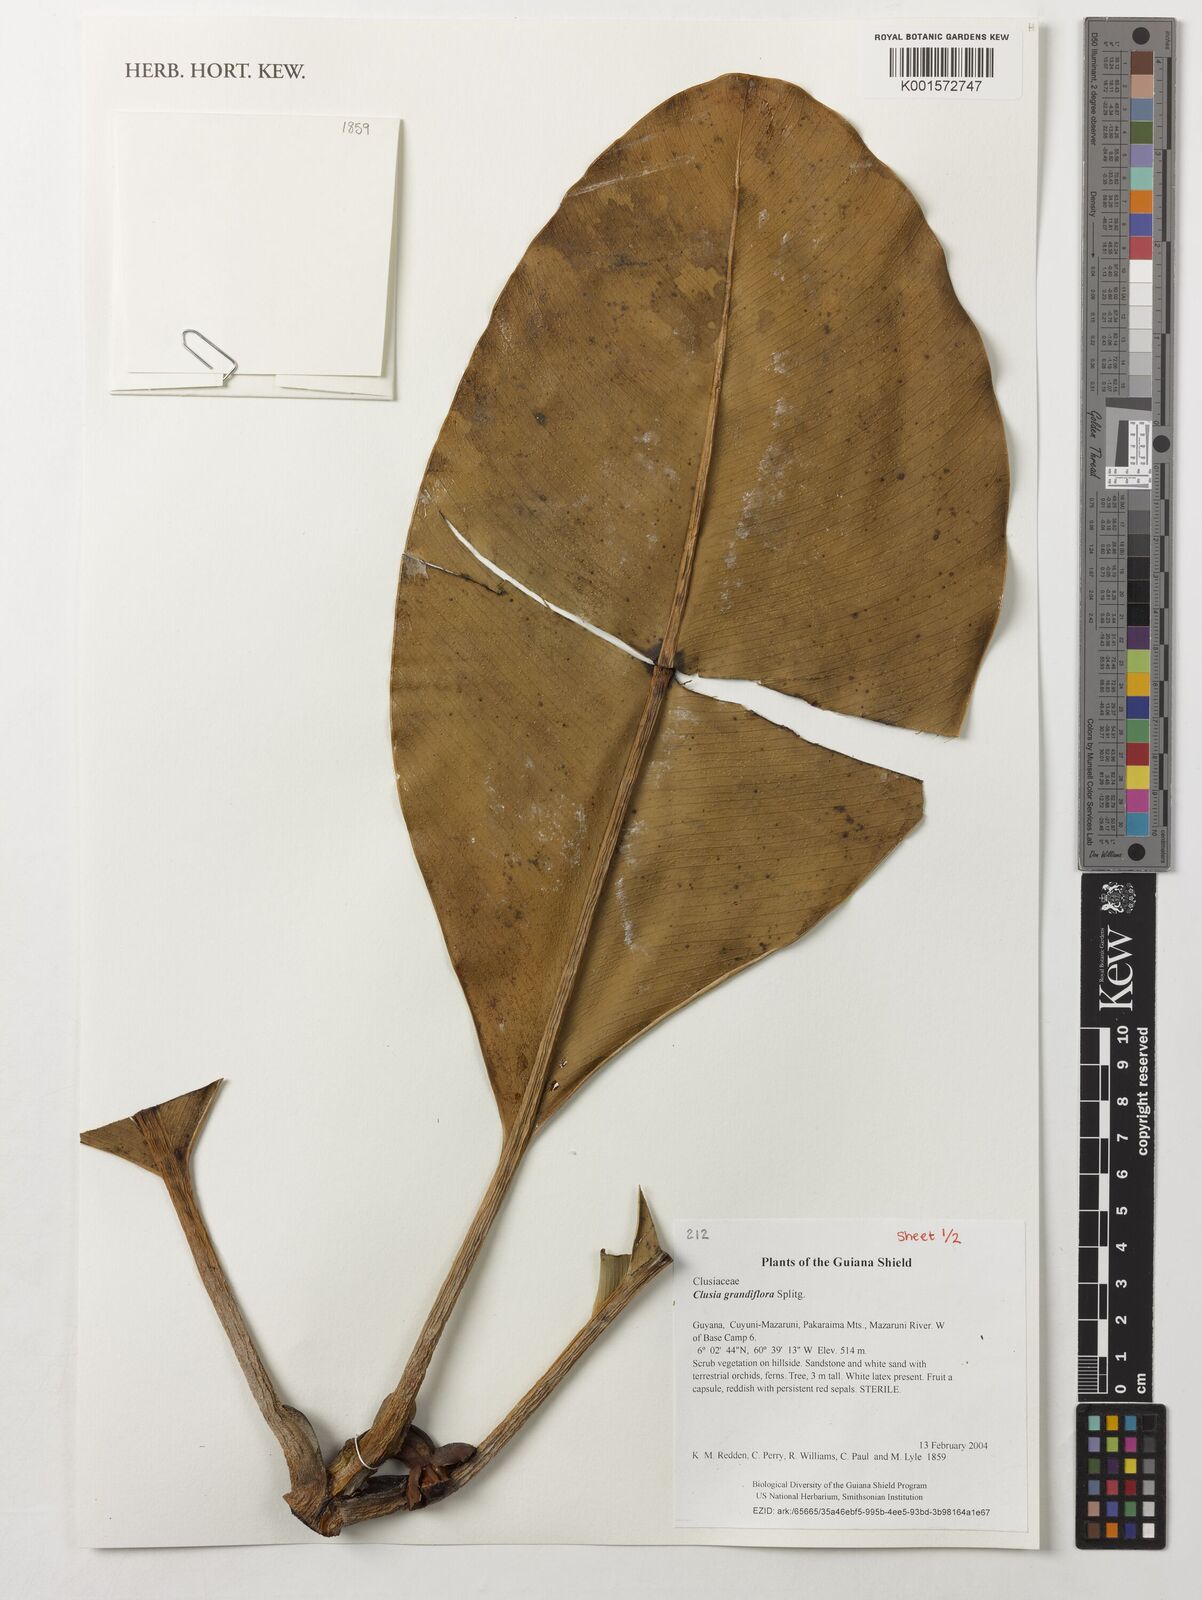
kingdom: Plantae
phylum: Tracheophyta
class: Magnoliopsida
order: Malpighiales
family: Clusiaceae
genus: Clusia
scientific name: Clusia grandiflora
